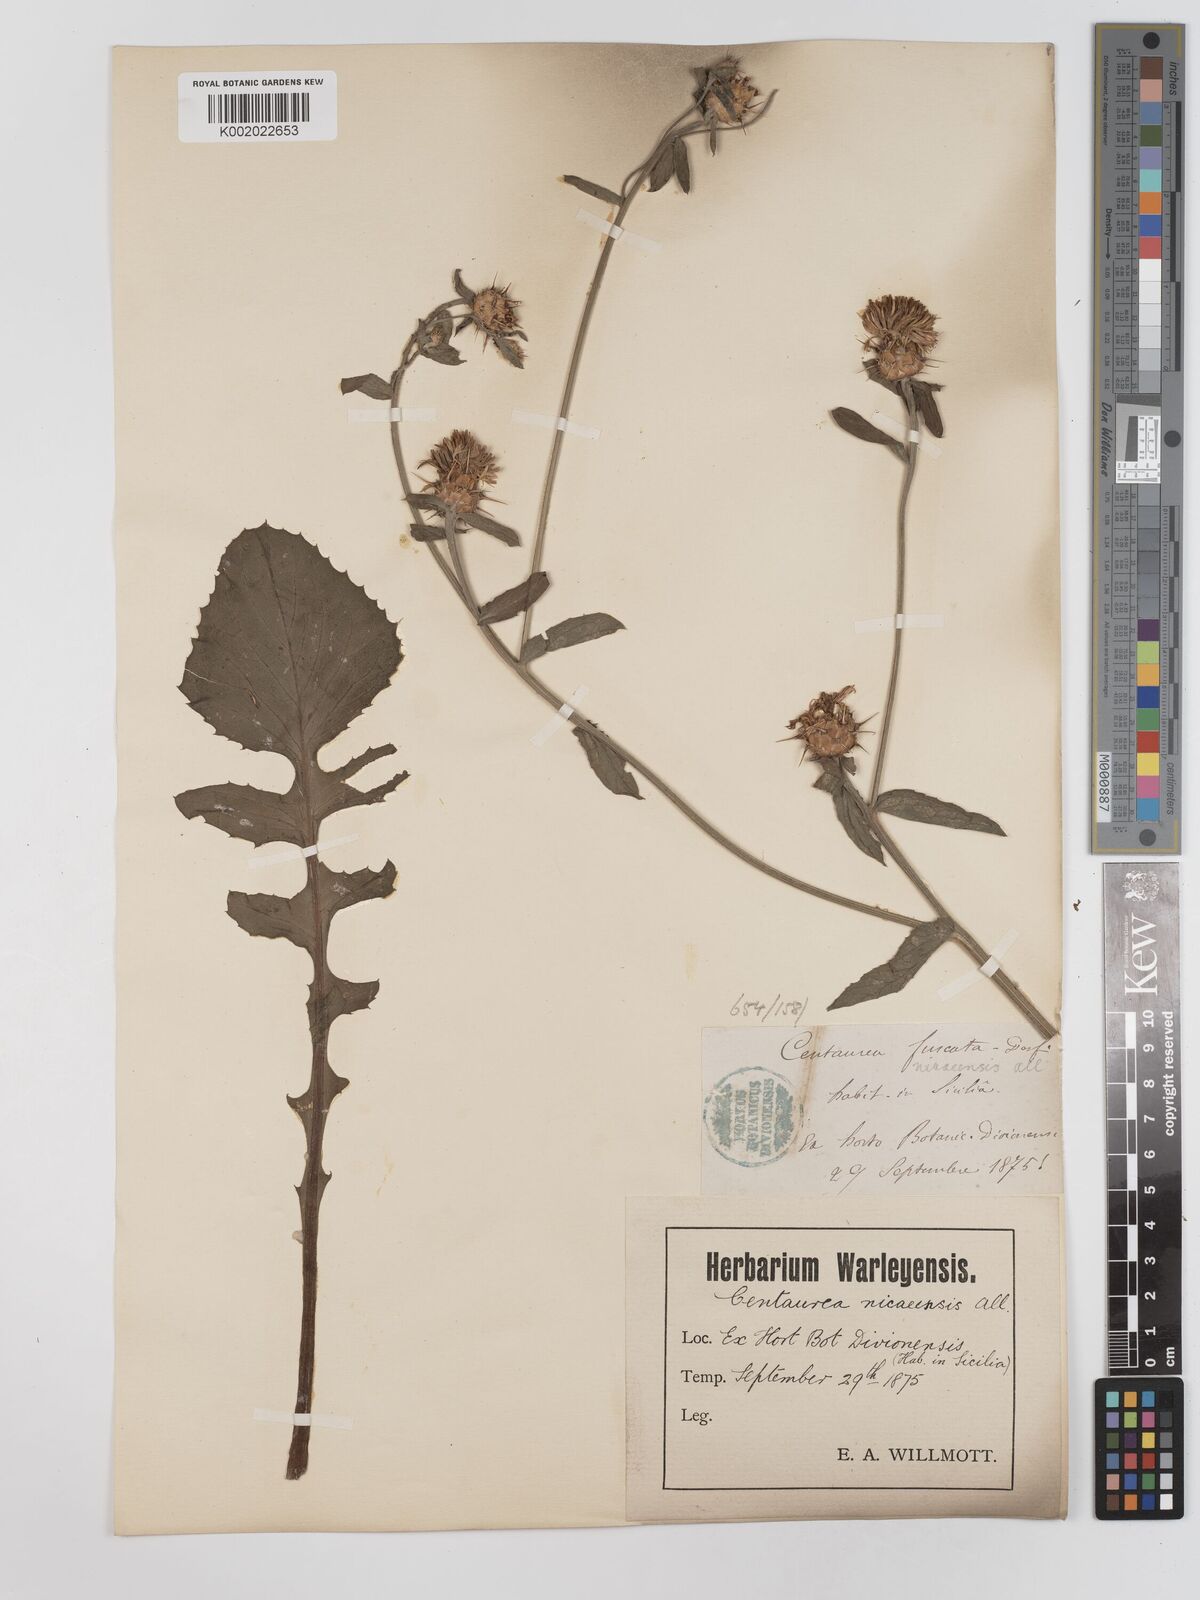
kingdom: Plantae
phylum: Tracheophyta
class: Magnoliopsida
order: Asterales
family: Asteraceae
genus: Centaurea
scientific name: Centaurea sicula
